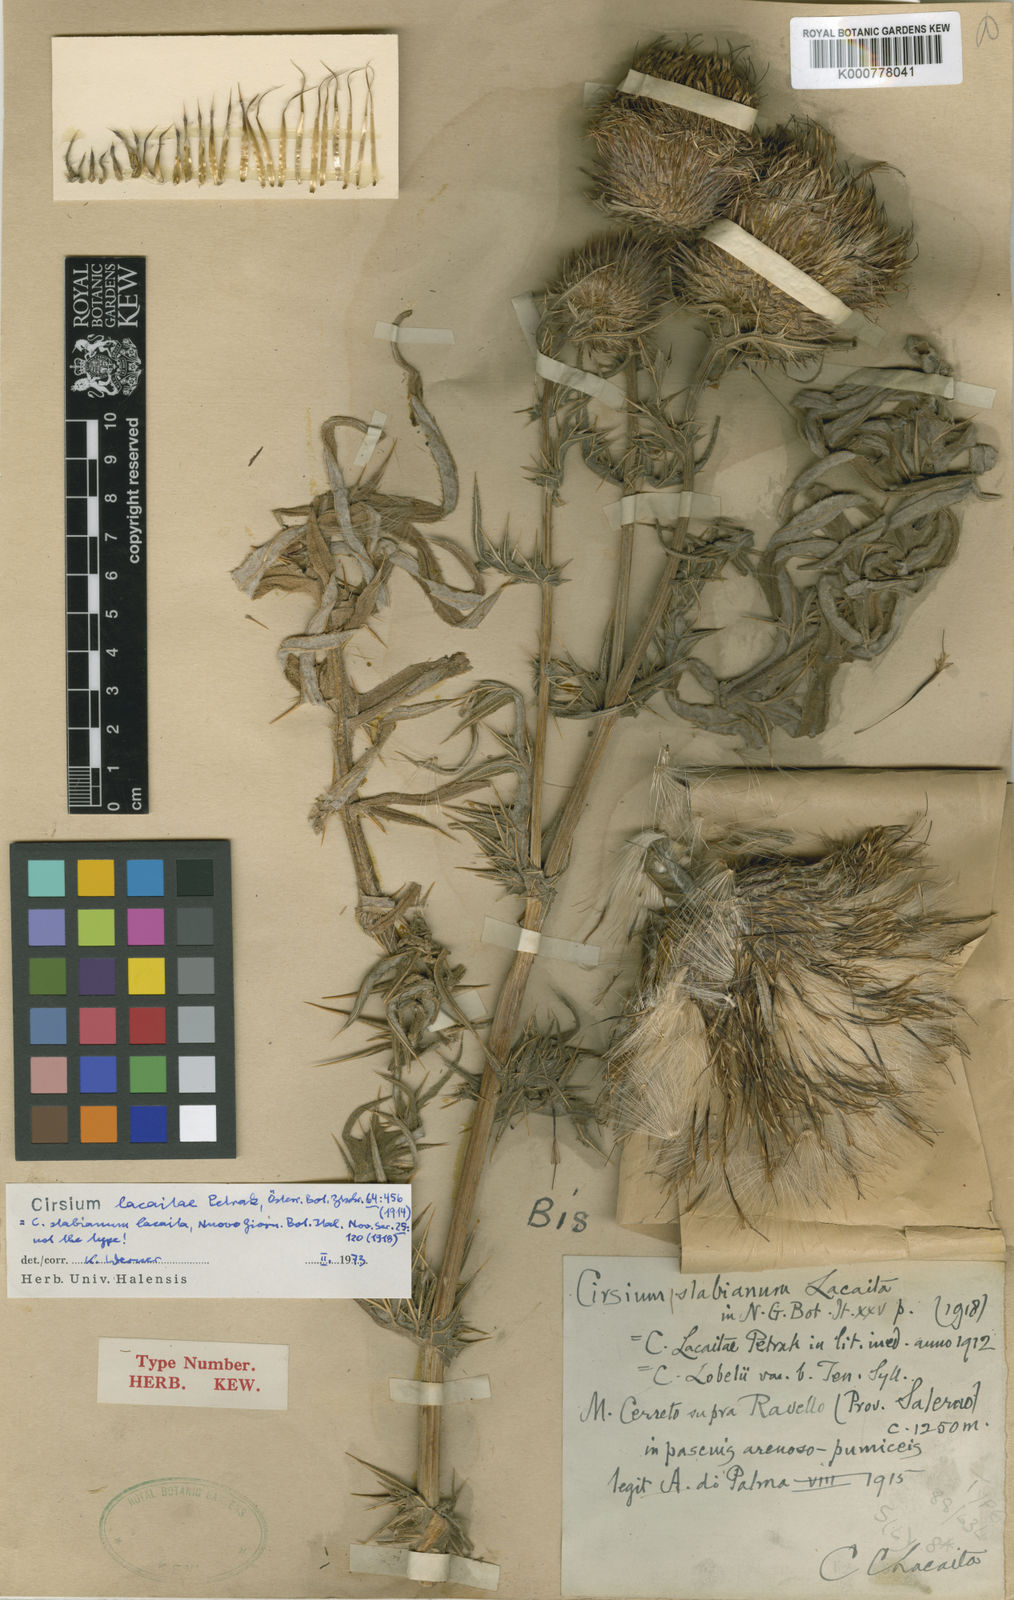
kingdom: Plantae
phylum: Tracheophyta
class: Magnoliopsida
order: Asterales
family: Asteraceae
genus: Lophiolepis
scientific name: Lophiolepis lobelii
